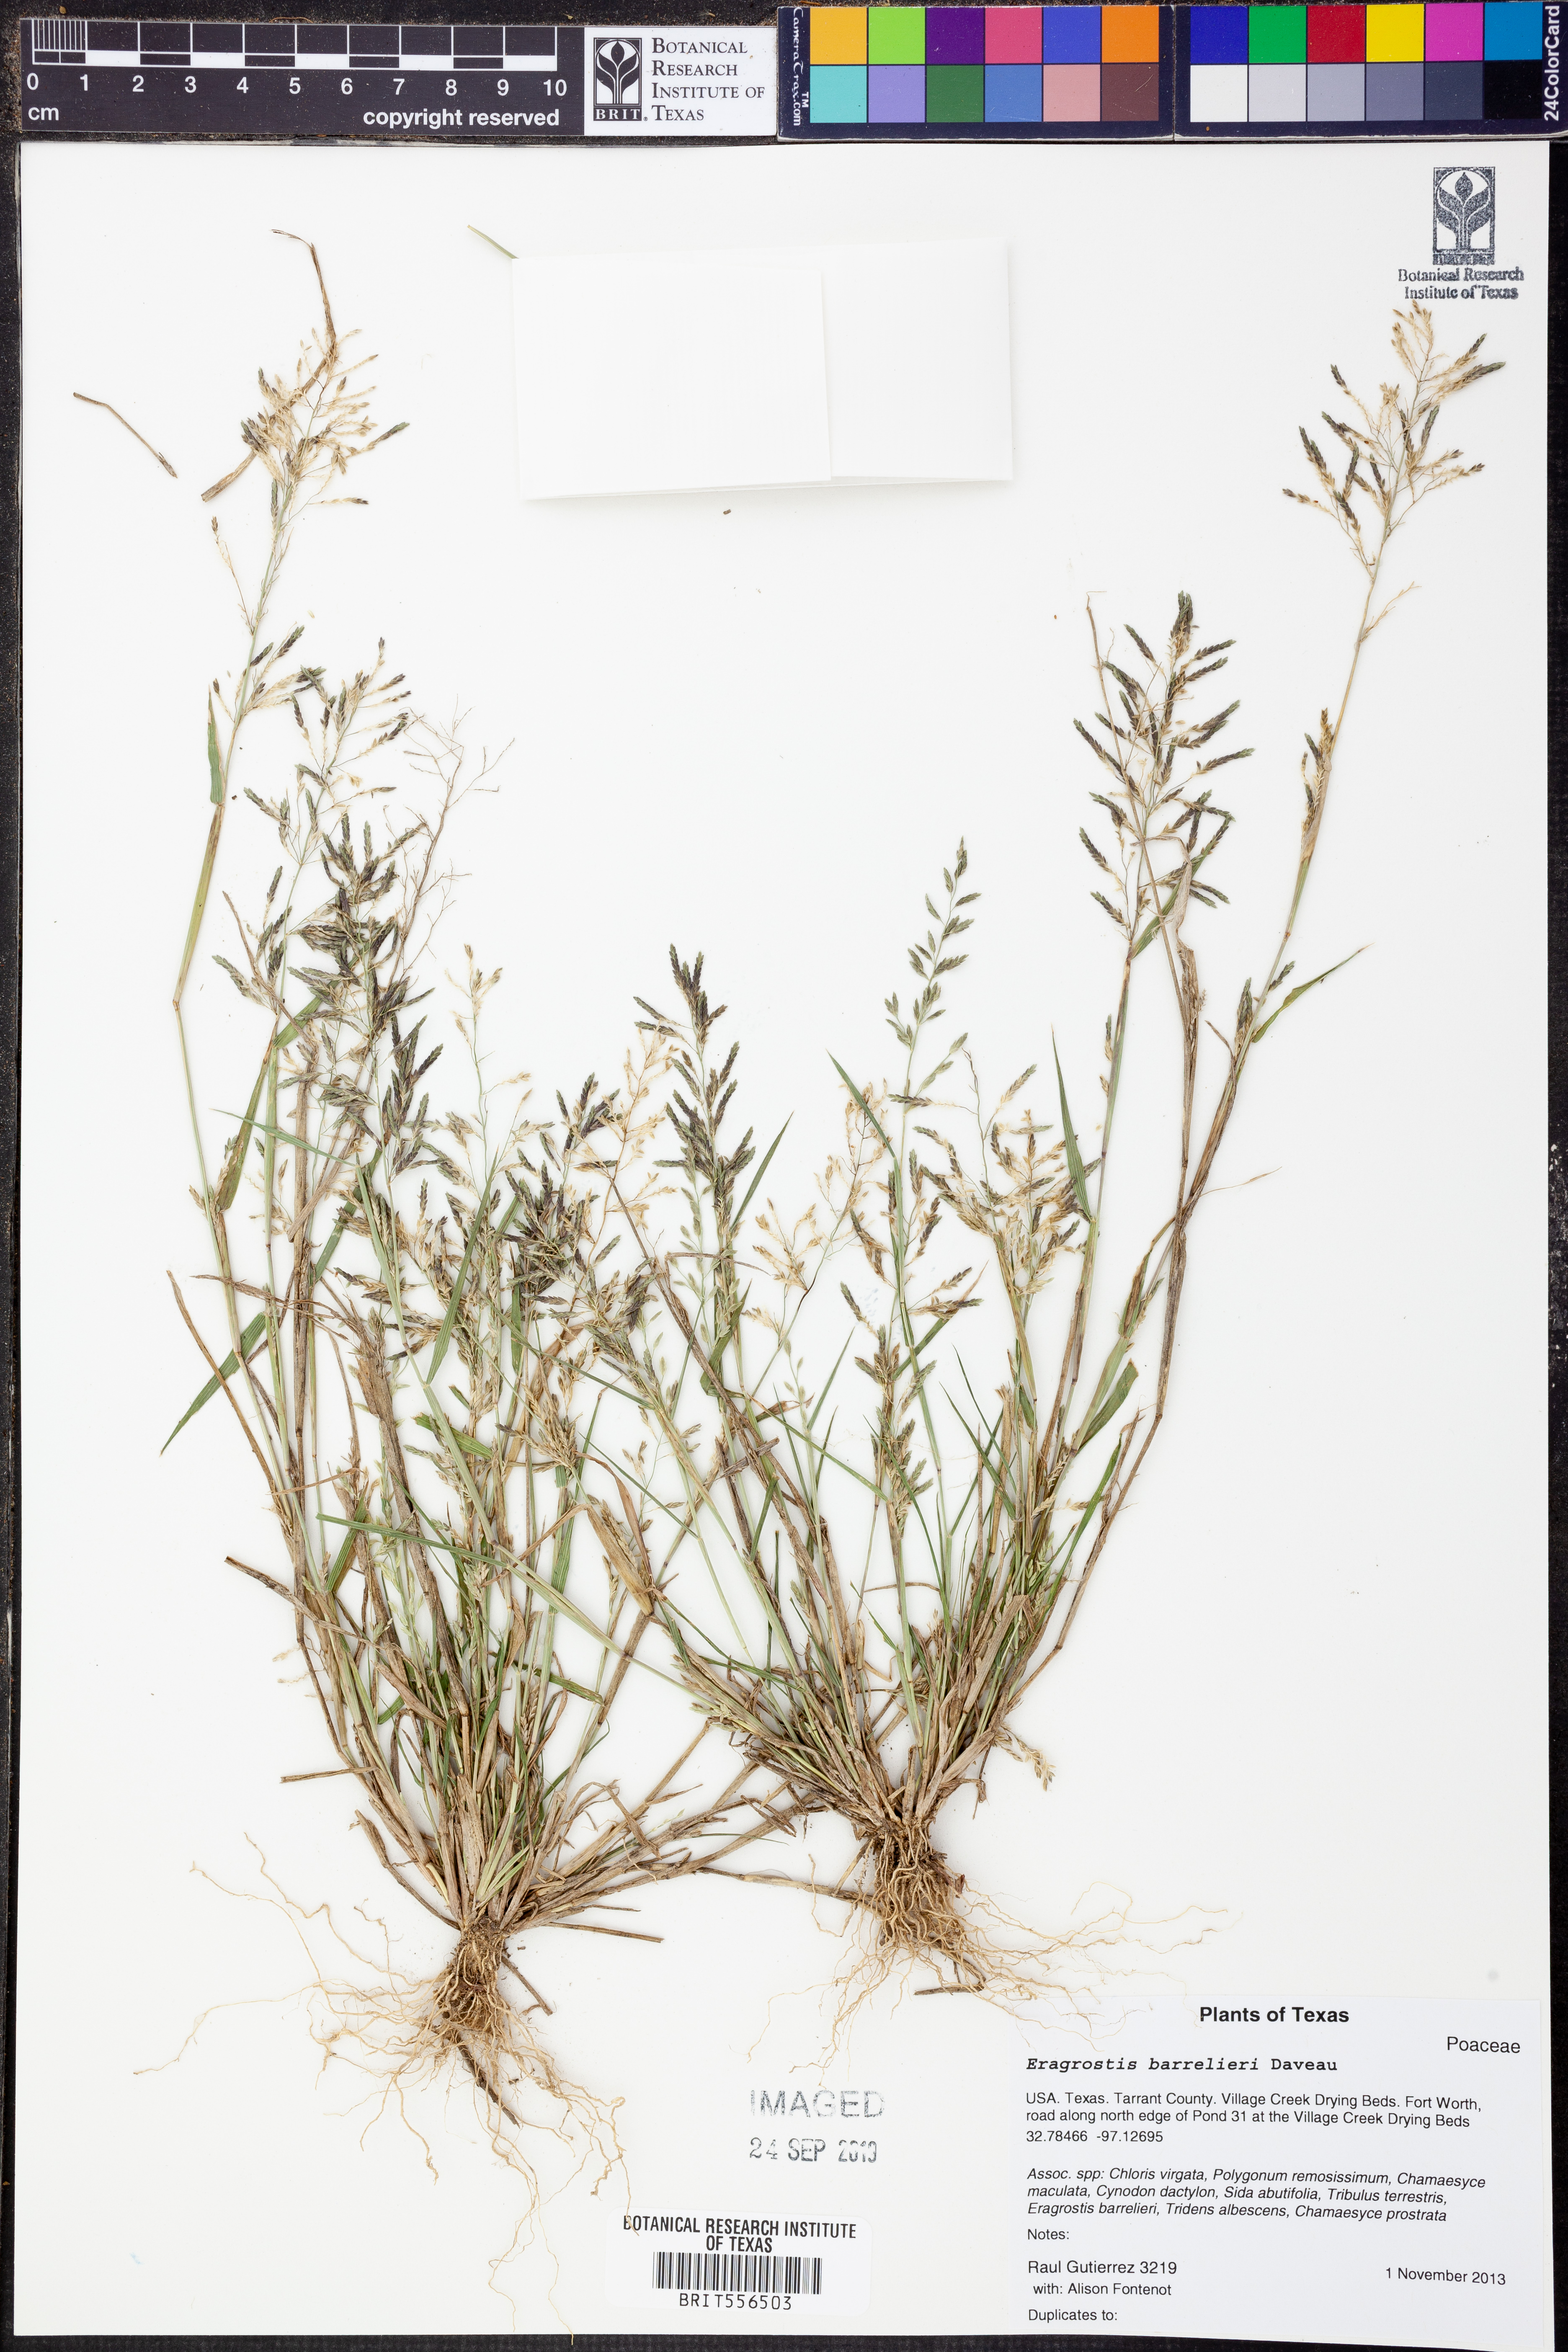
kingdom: Plantae
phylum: Tracheophyta
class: Liliopsida
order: Poales
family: Poaceae
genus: Eragrostis
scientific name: Eragrostis barrelieri
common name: Mediterranean lovegrass
